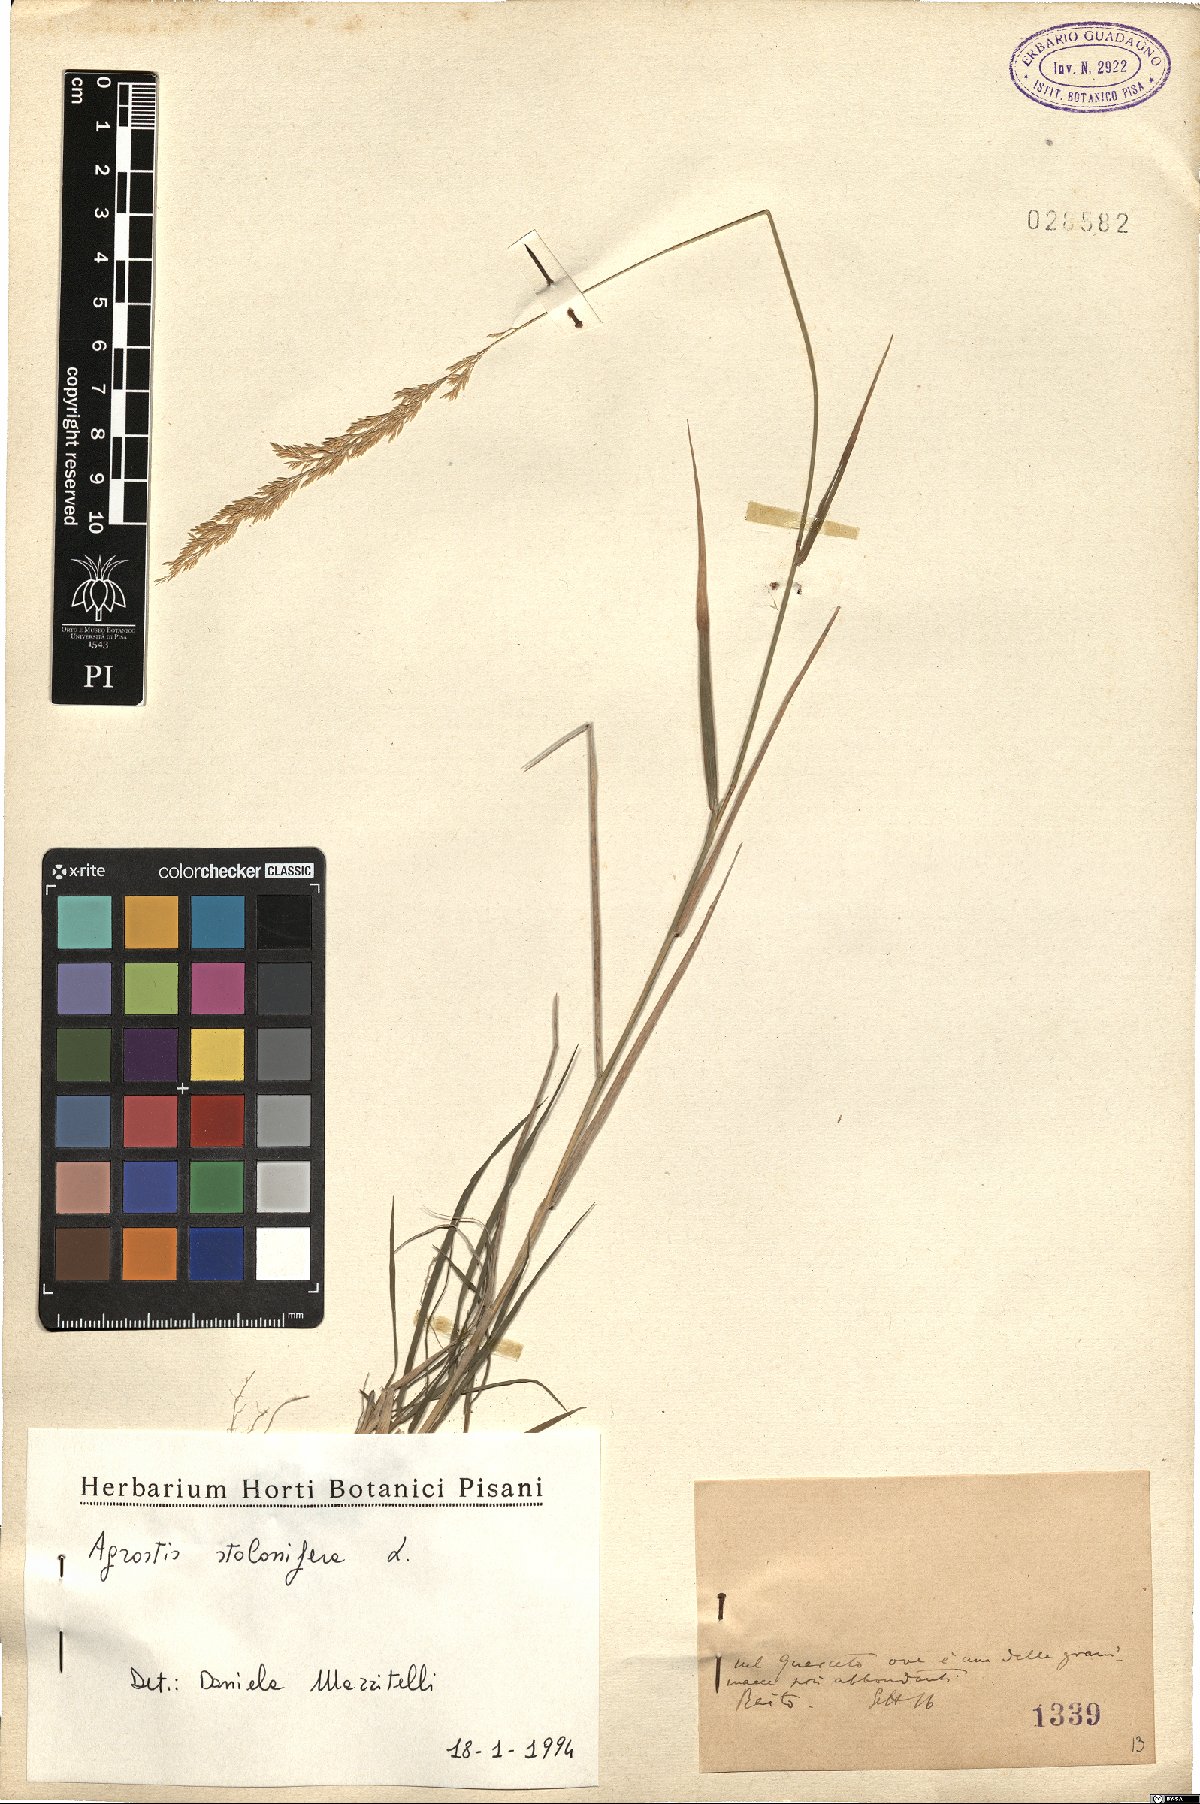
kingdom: Plantae
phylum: Tracheophyta
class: Liliopsida
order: Poales
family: Poaceae
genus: Agrostis
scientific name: Agrostis stolonifera
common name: Creeping bentgrass
